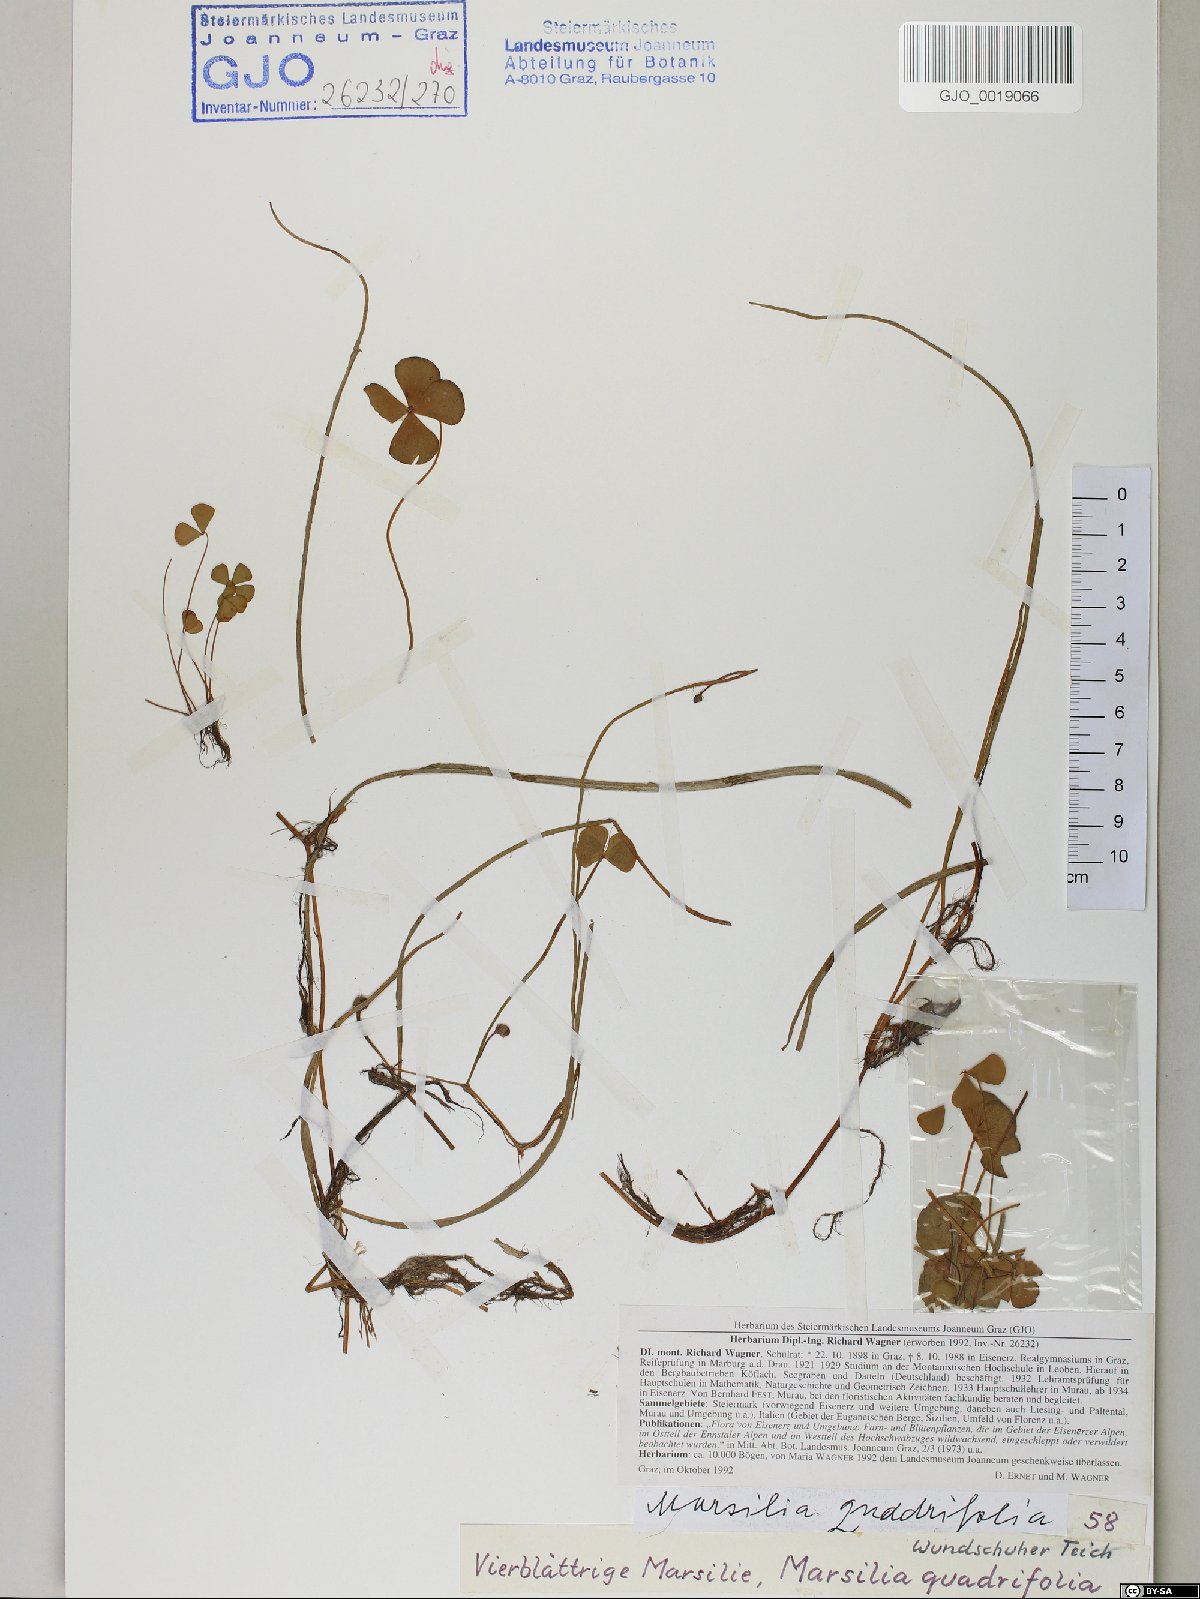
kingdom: Plantae
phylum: Tracheophyta
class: Polypodiopsida
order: Salviniales
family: Marsileaceae
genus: Marsilea
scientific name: Marsilea quadrifolia
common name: Water shamrock
